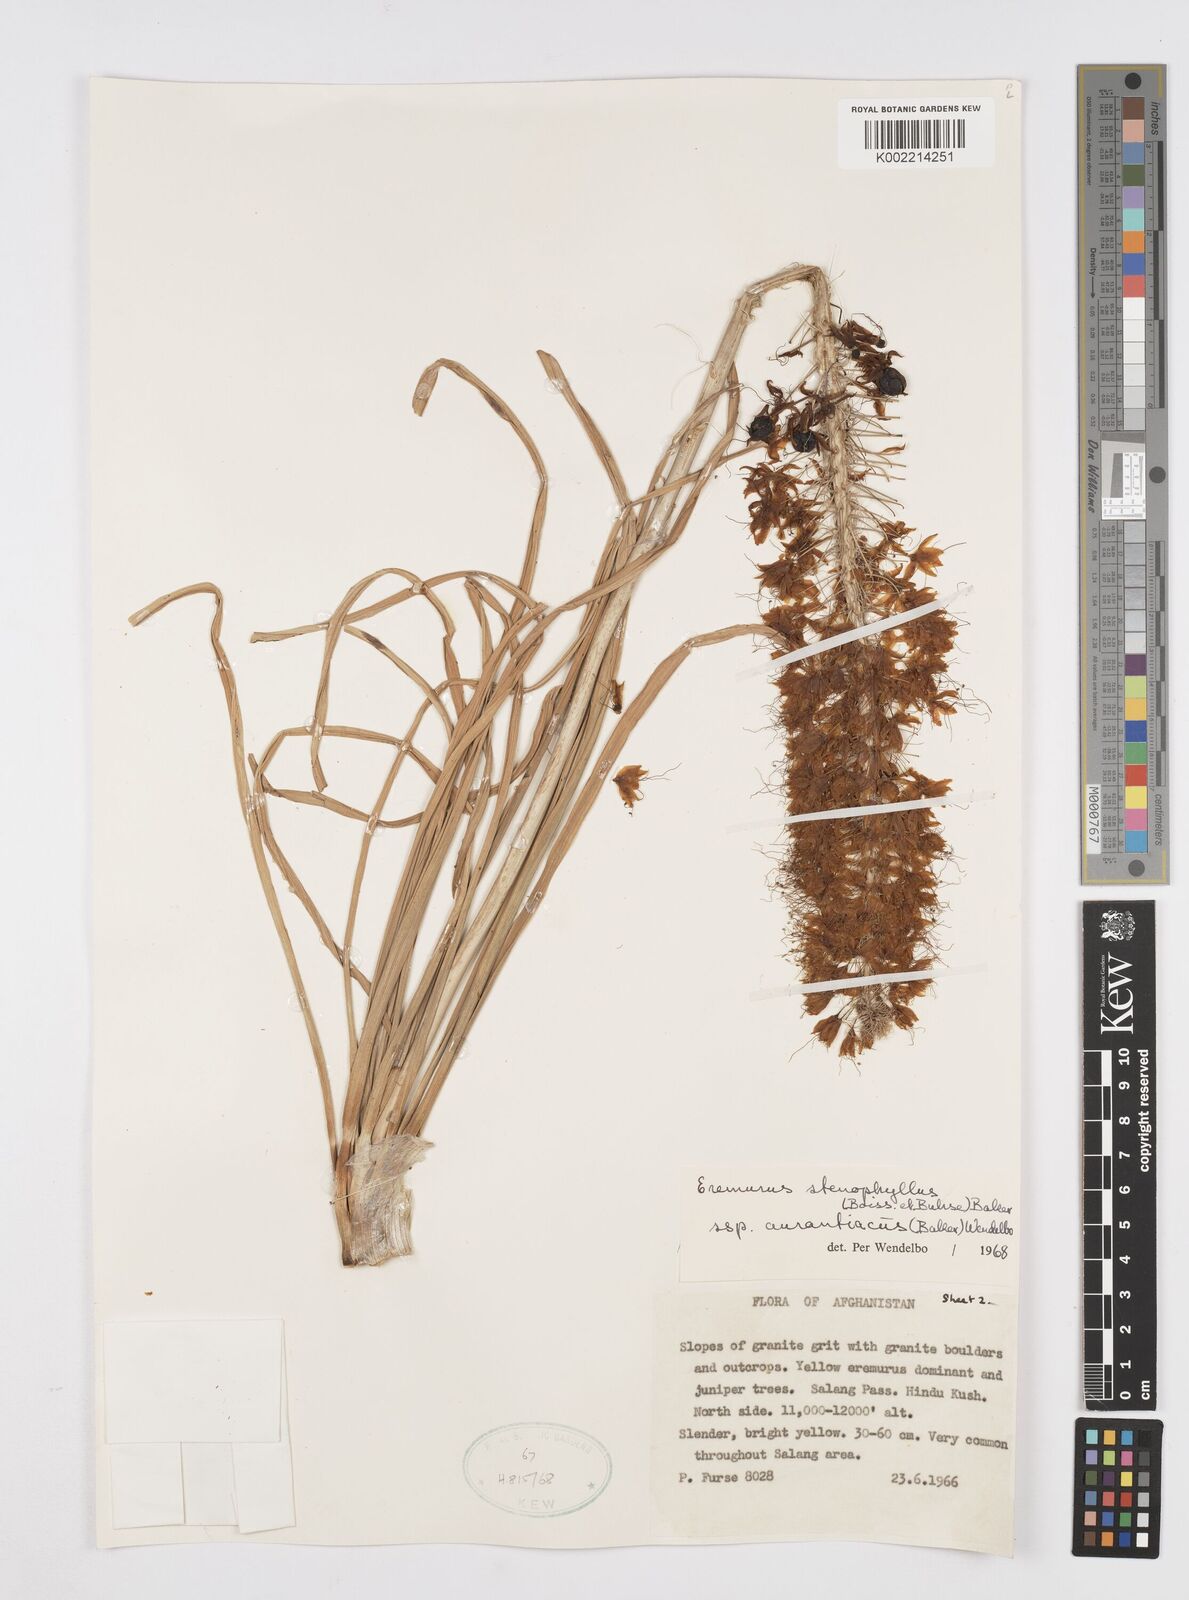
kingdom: Plantae
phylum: Tracheophyta
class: Liliopsida
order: Asparagales
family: Asphodelaceae
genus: Eremurus
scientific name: Eremurus stenophyllus
